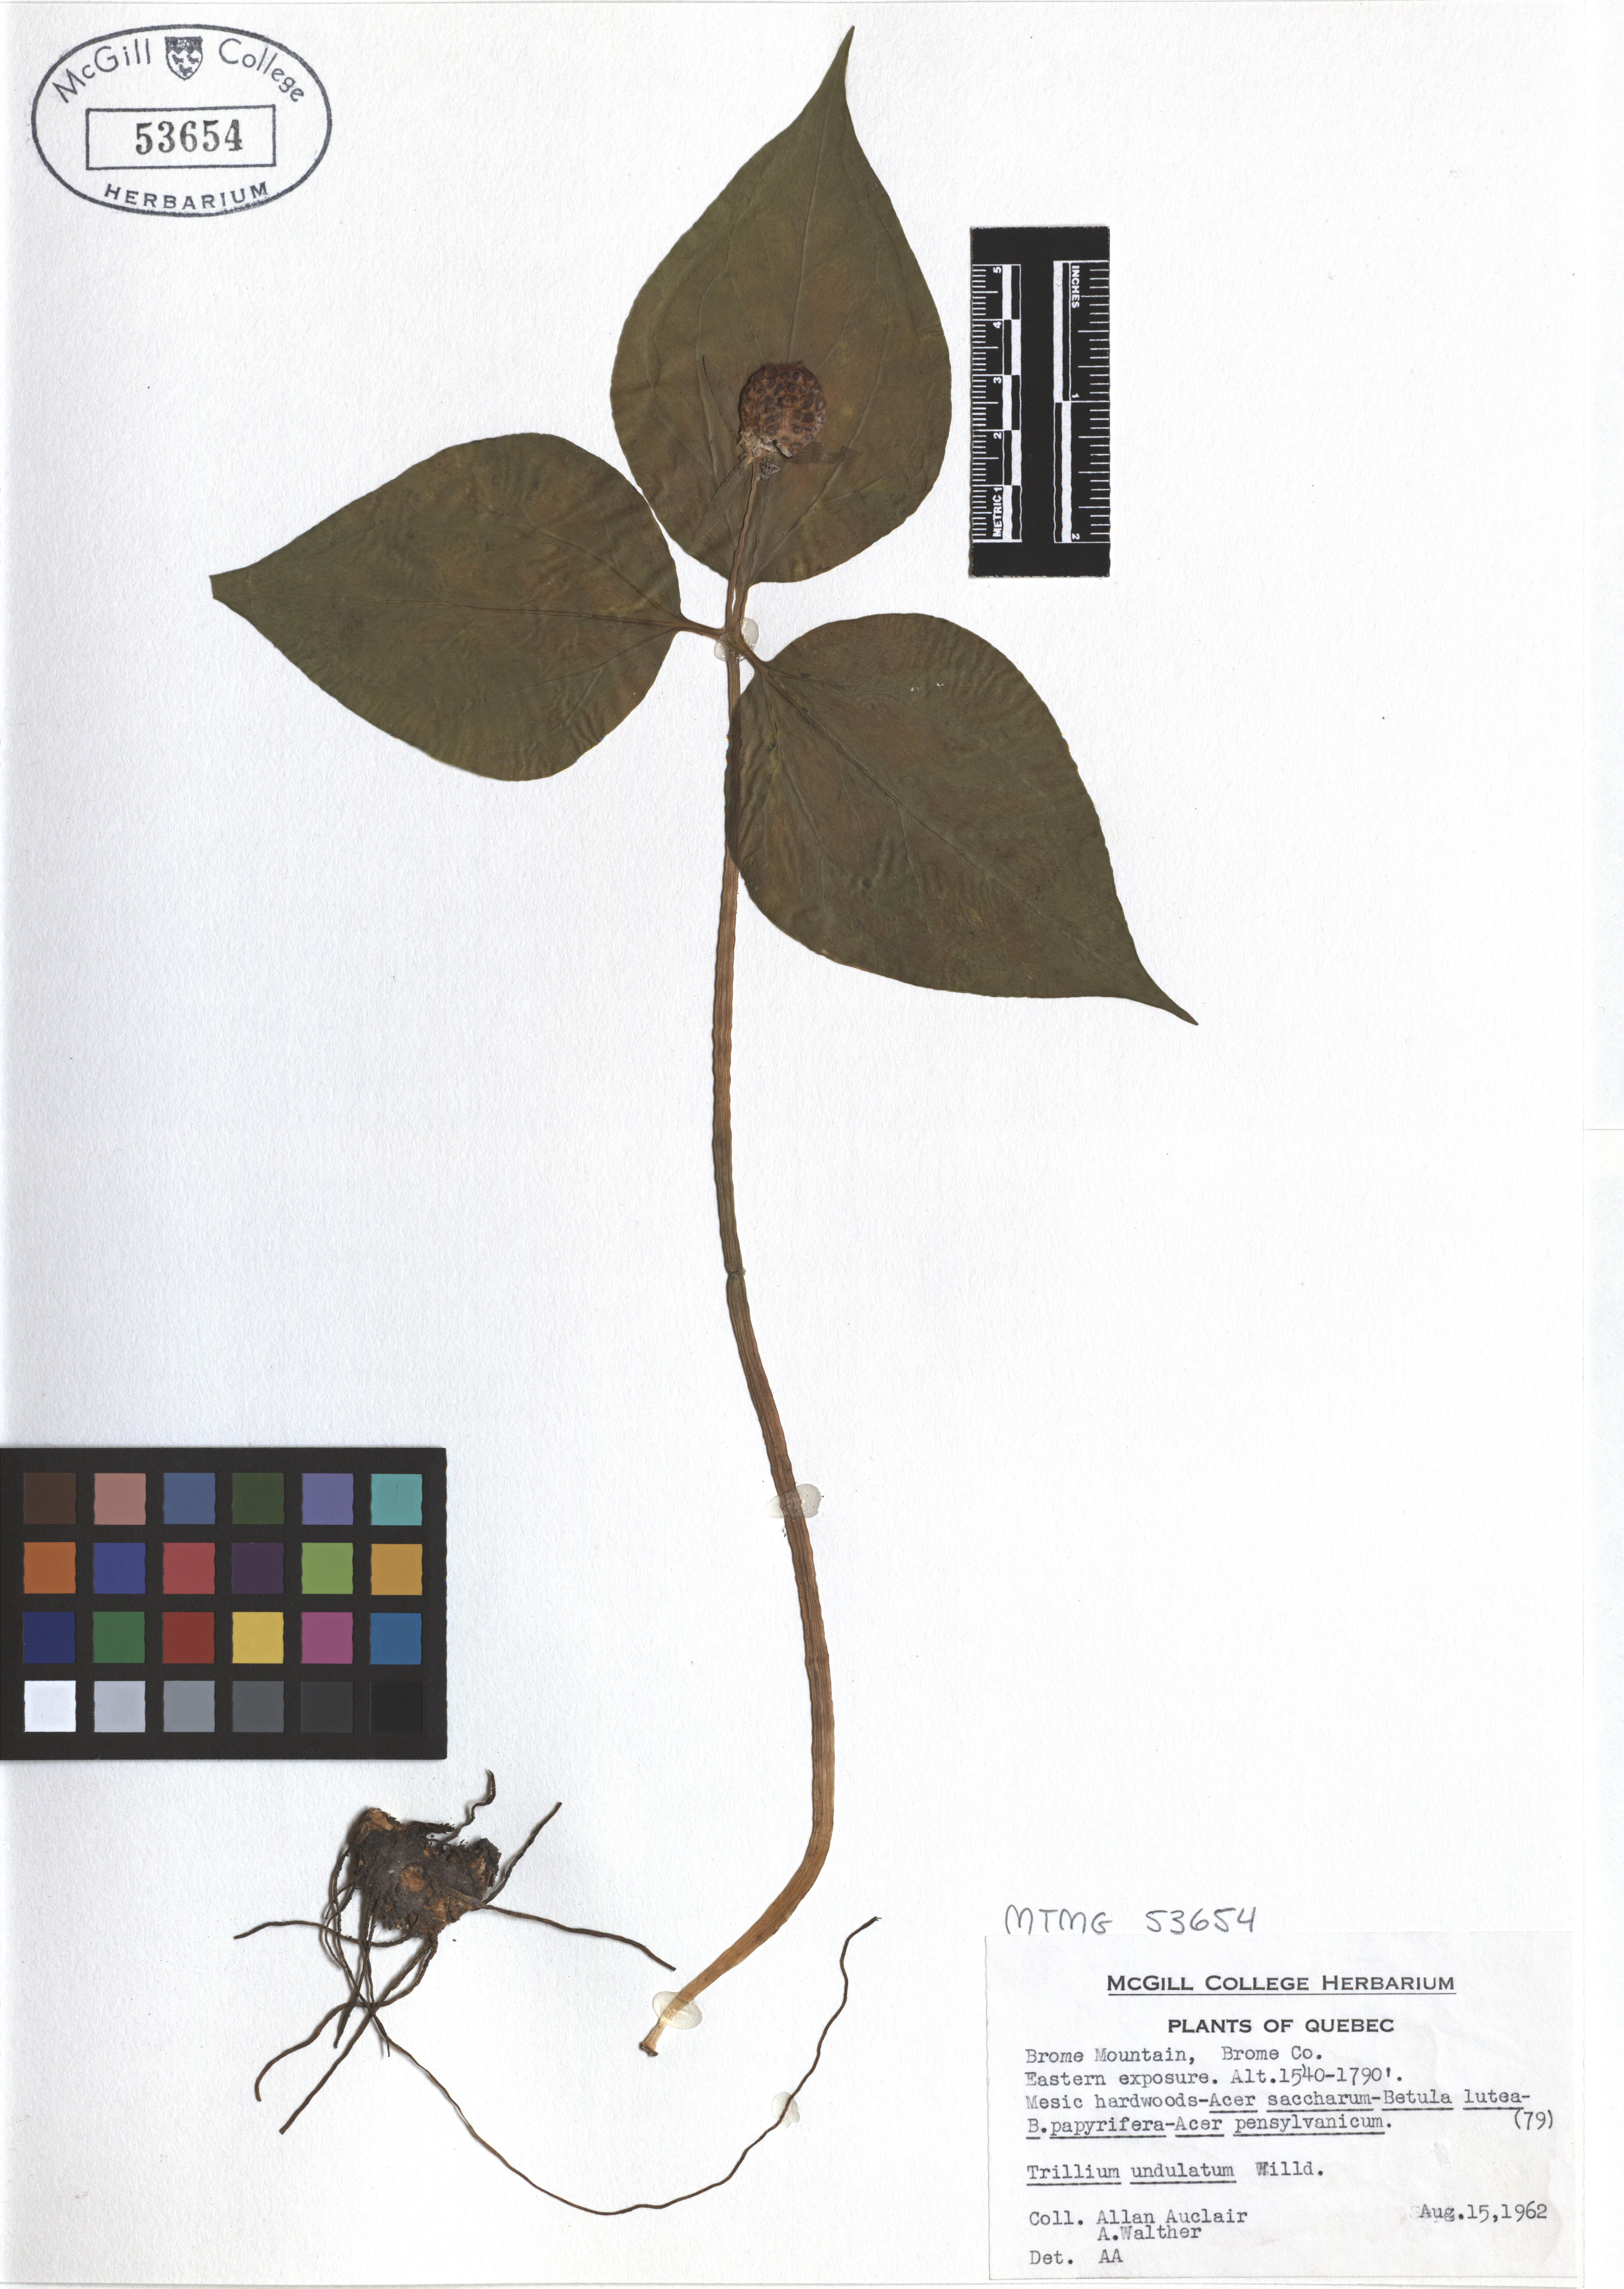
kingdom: Plantae
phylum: Tracheophyta
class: Liliopsida
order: Liliales
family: Melanthiaceae
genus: Trillium
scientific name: Trillium undulatum
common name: Paint trillium
